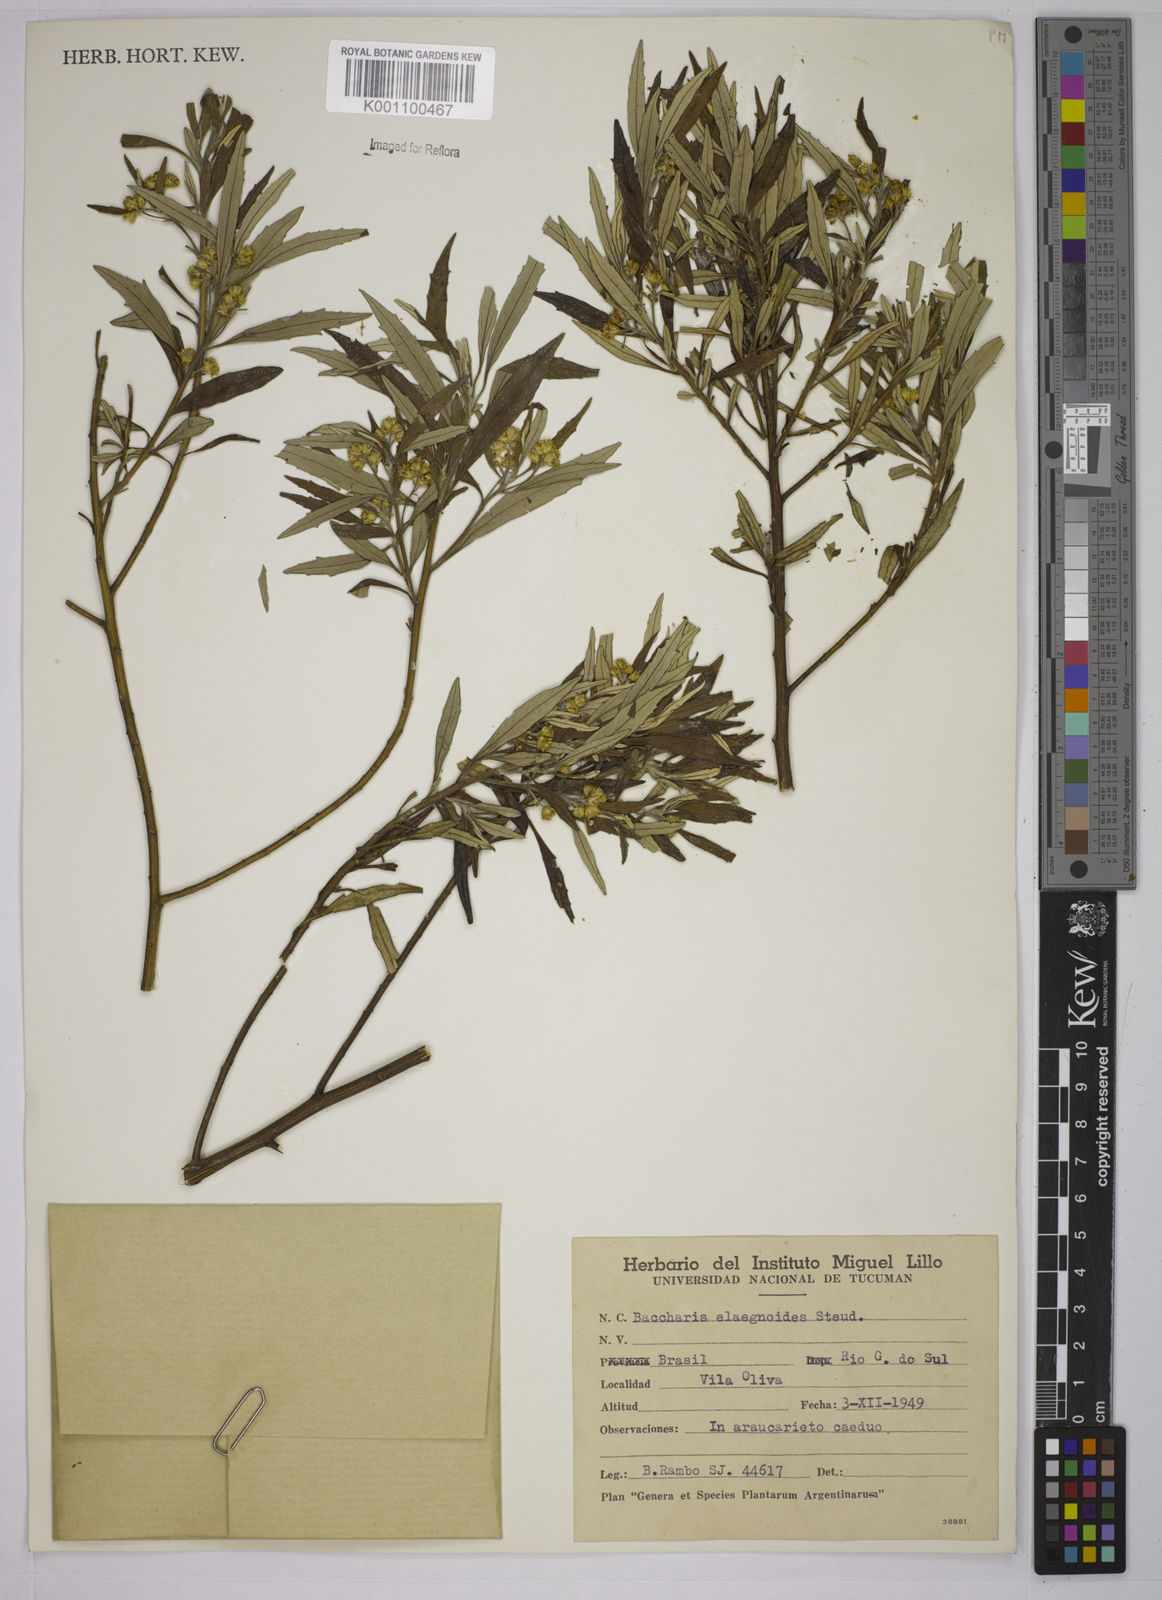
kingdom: Plantae
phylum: Tracheophyta
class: Magnoliopsida
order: Asterales
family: Asteraceae
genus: Baccharis
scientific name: Baccharis
